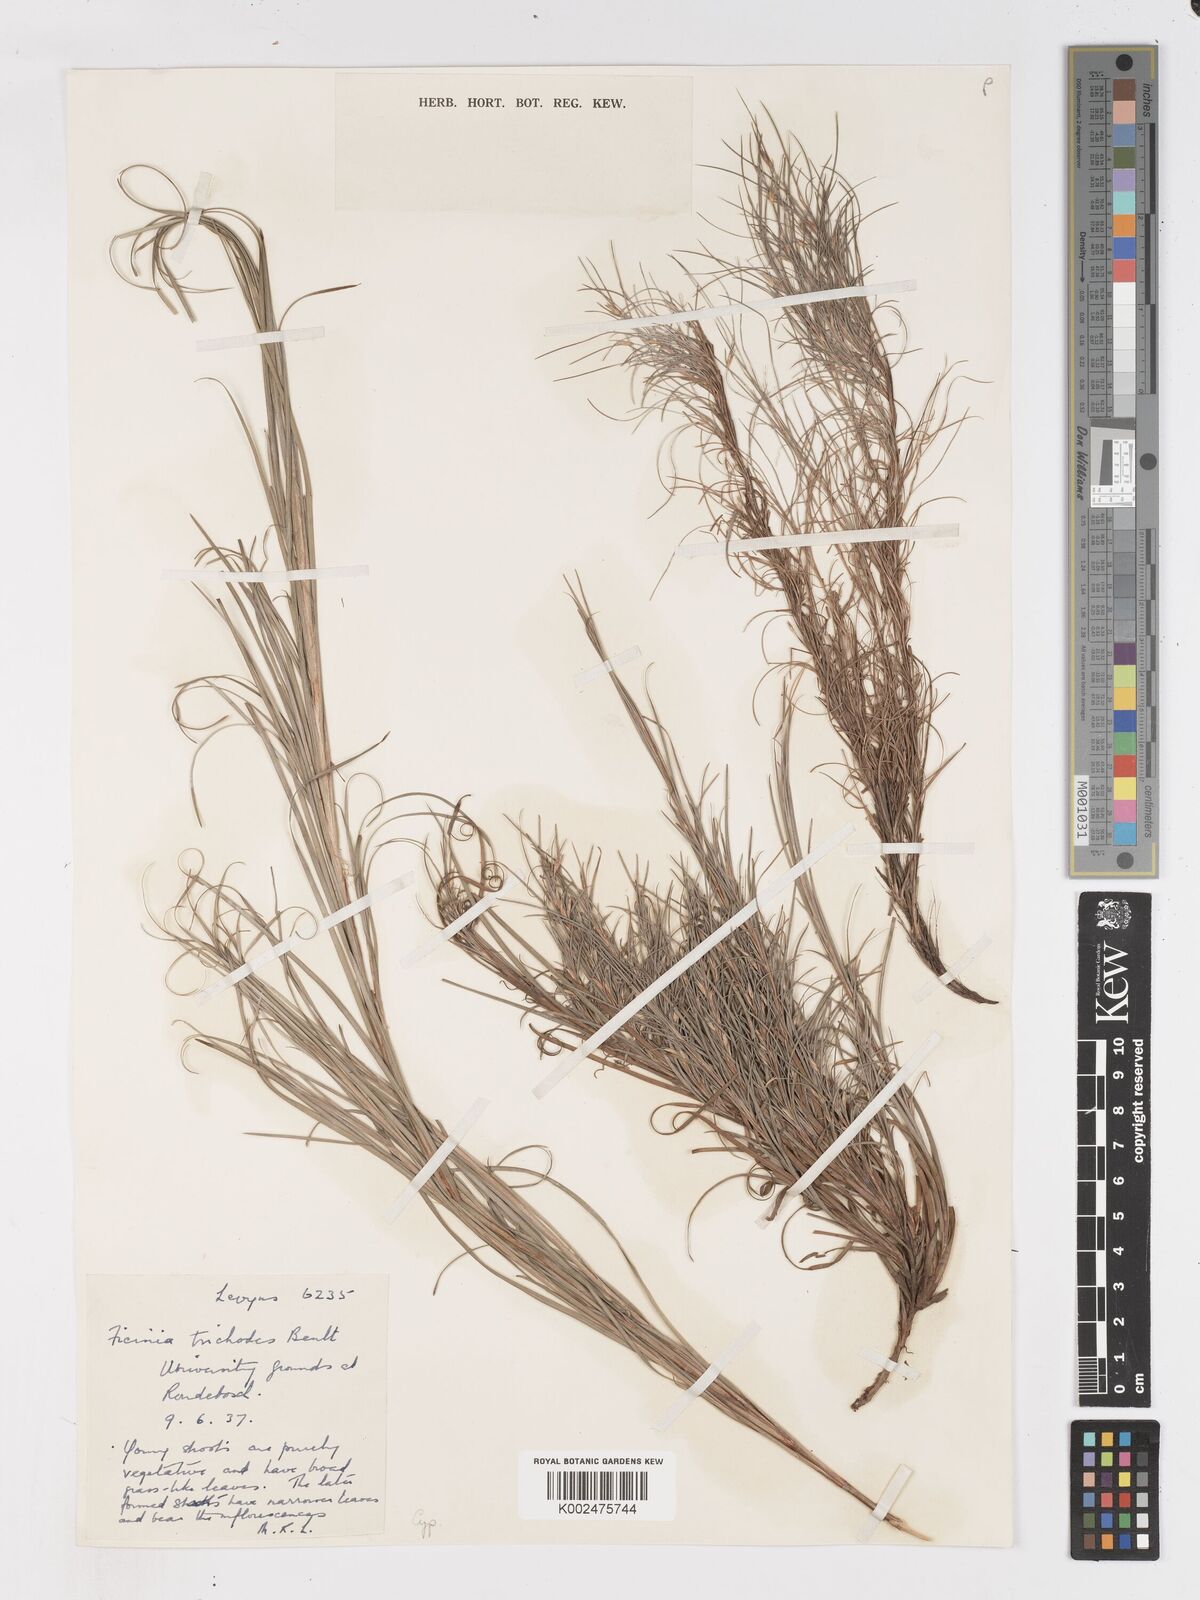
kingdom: Plantae
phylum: Tracheophyta
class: Liliopsida
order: Poales
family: Cyperaceae
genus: Ficinia
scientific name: Ficinia trichodes
